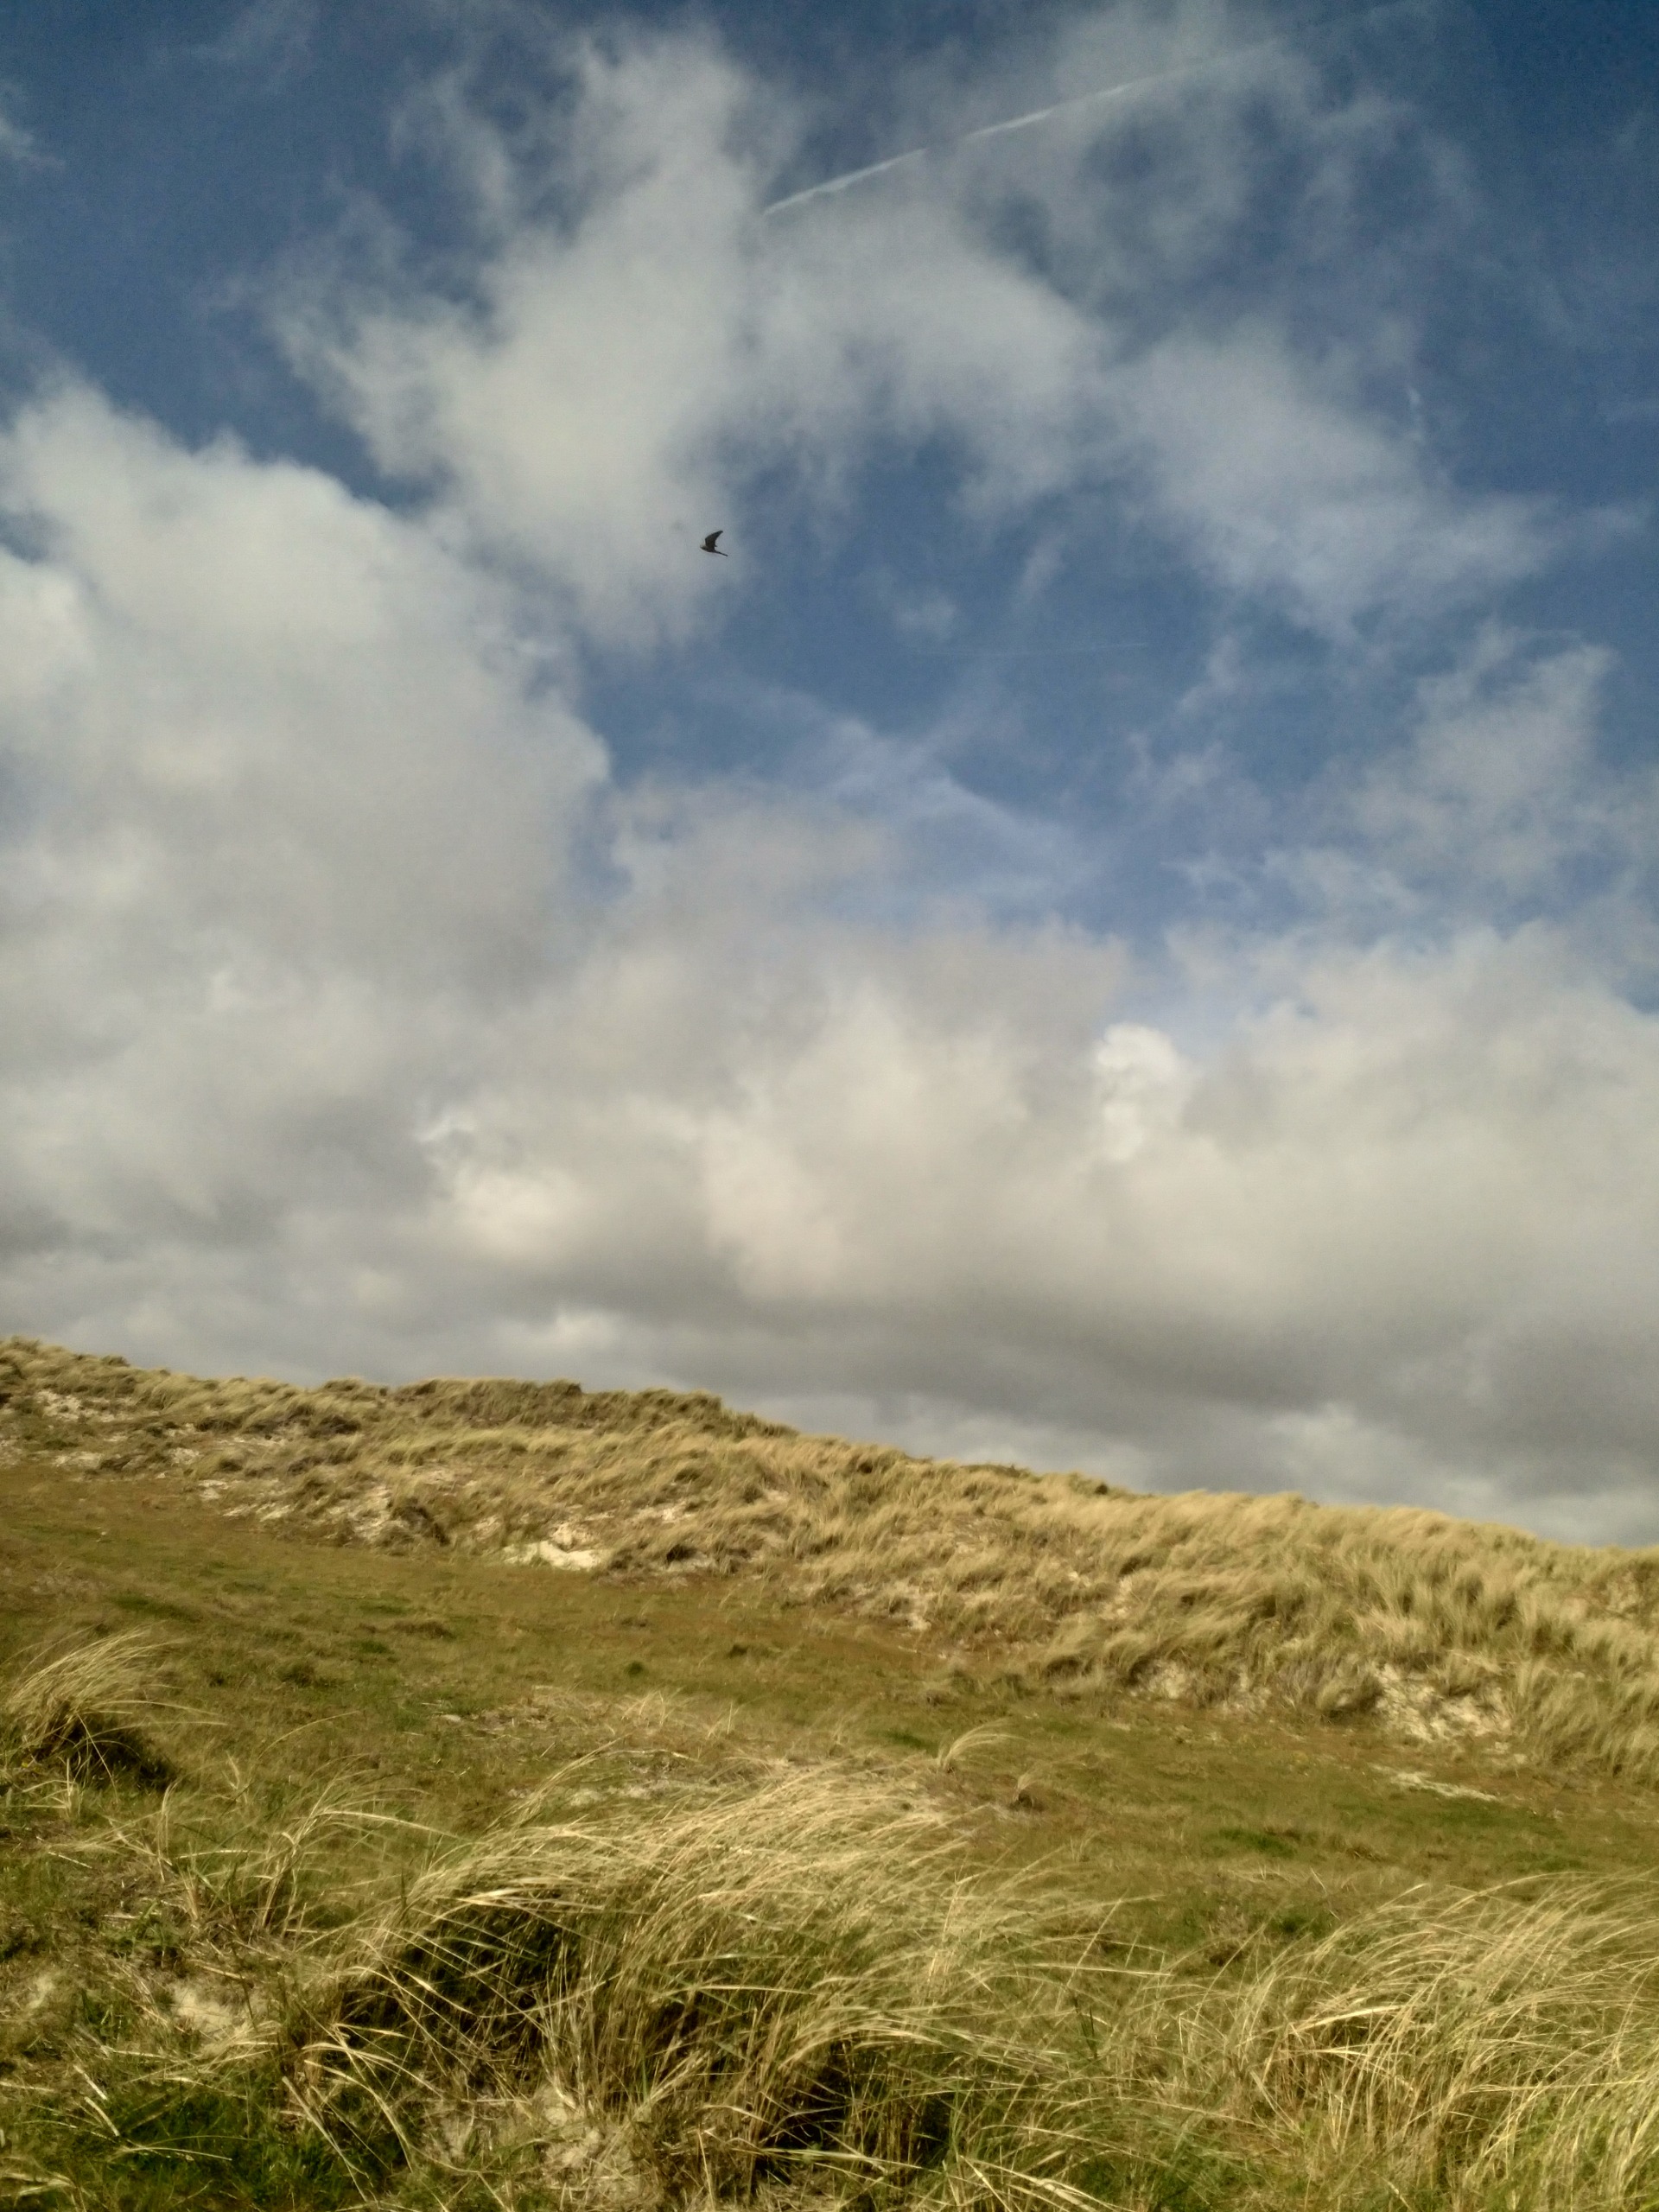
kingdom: Animalia
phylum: Chordata
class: Aves
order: Falconiformes
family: Falconidae
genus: Falco
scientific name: Falco tinnunculus
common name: Tårnfalk
